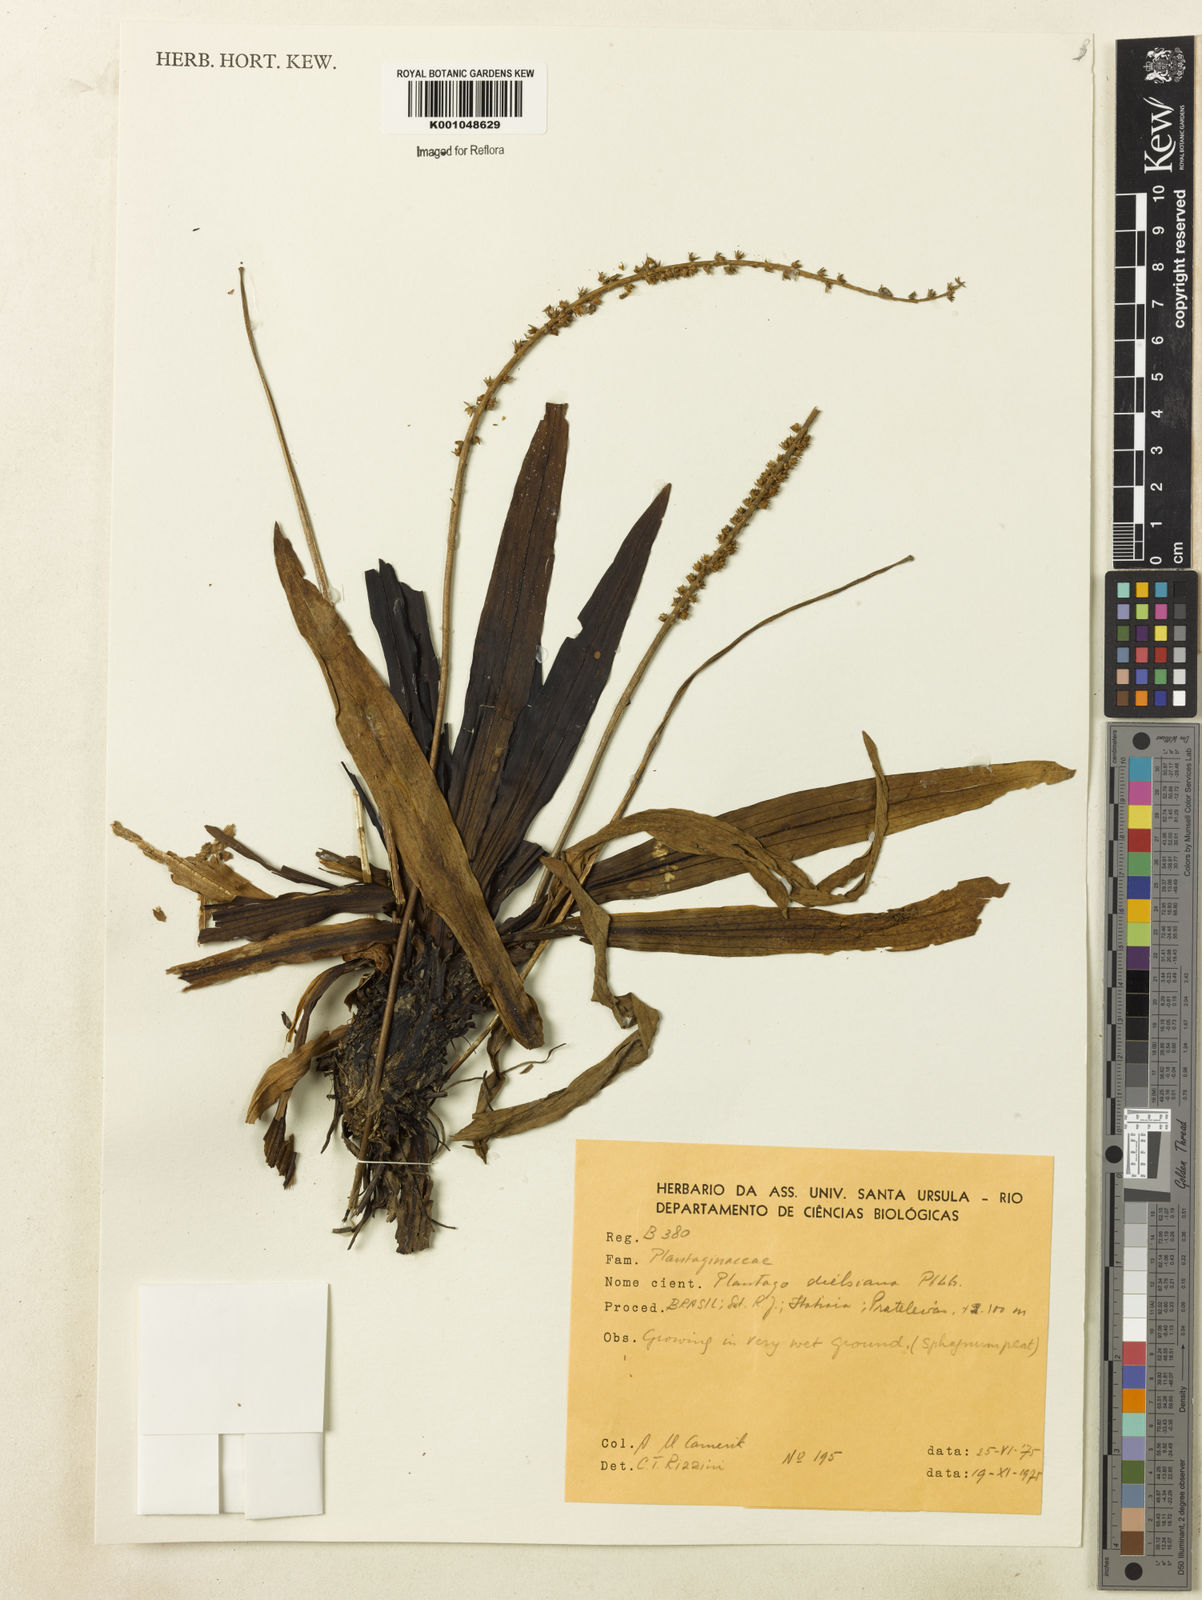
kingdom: Plantae
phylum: Tracheophyta
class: Magnoliopsida
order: Lamiales
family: Plantaginaceae
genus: Plantago
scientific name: Plantago dielsiana
